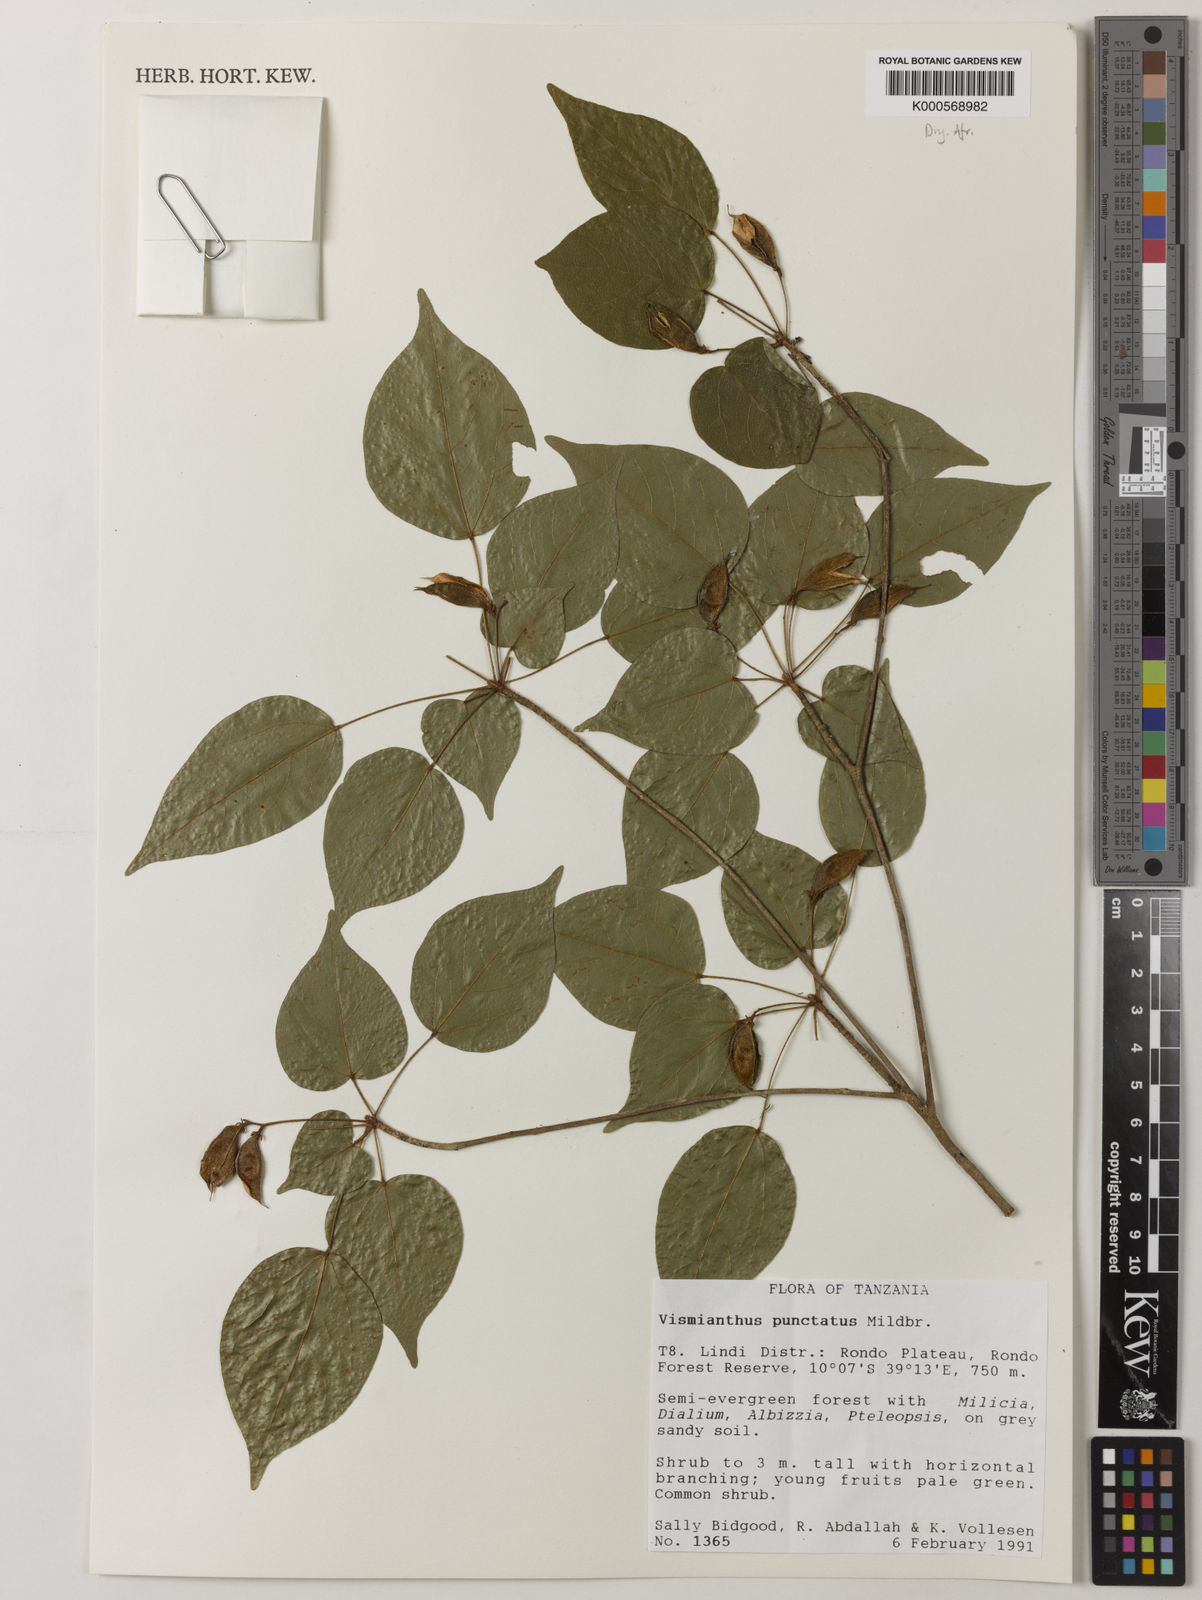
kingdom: Plantae
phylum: Tracheophyta
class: Magnoliopsida
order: Oxalidales
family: Connaraceae
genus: Vismianthus
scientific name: Vismianthus punctatus
